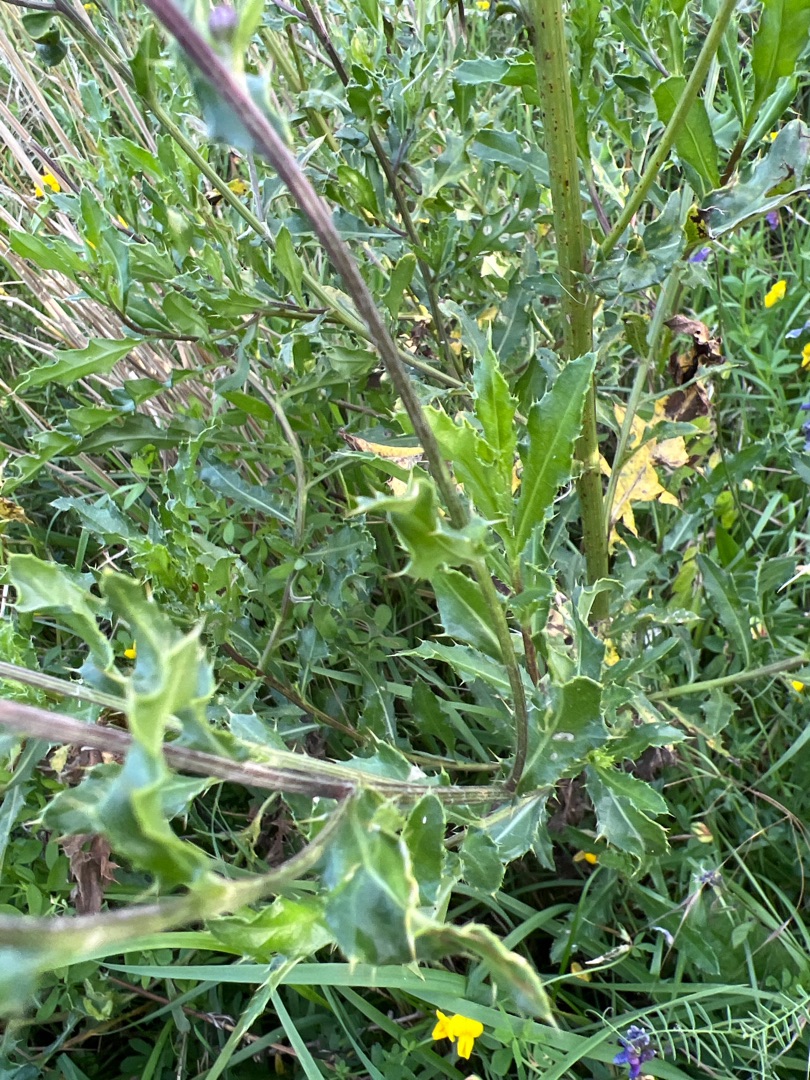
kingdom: Plantae
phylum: Tracheophyta
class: Magnoliopsida
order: Asterales
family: Asteraceae
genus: Cirsium
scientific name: Cirsium arvense
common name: Ager-tidsel
